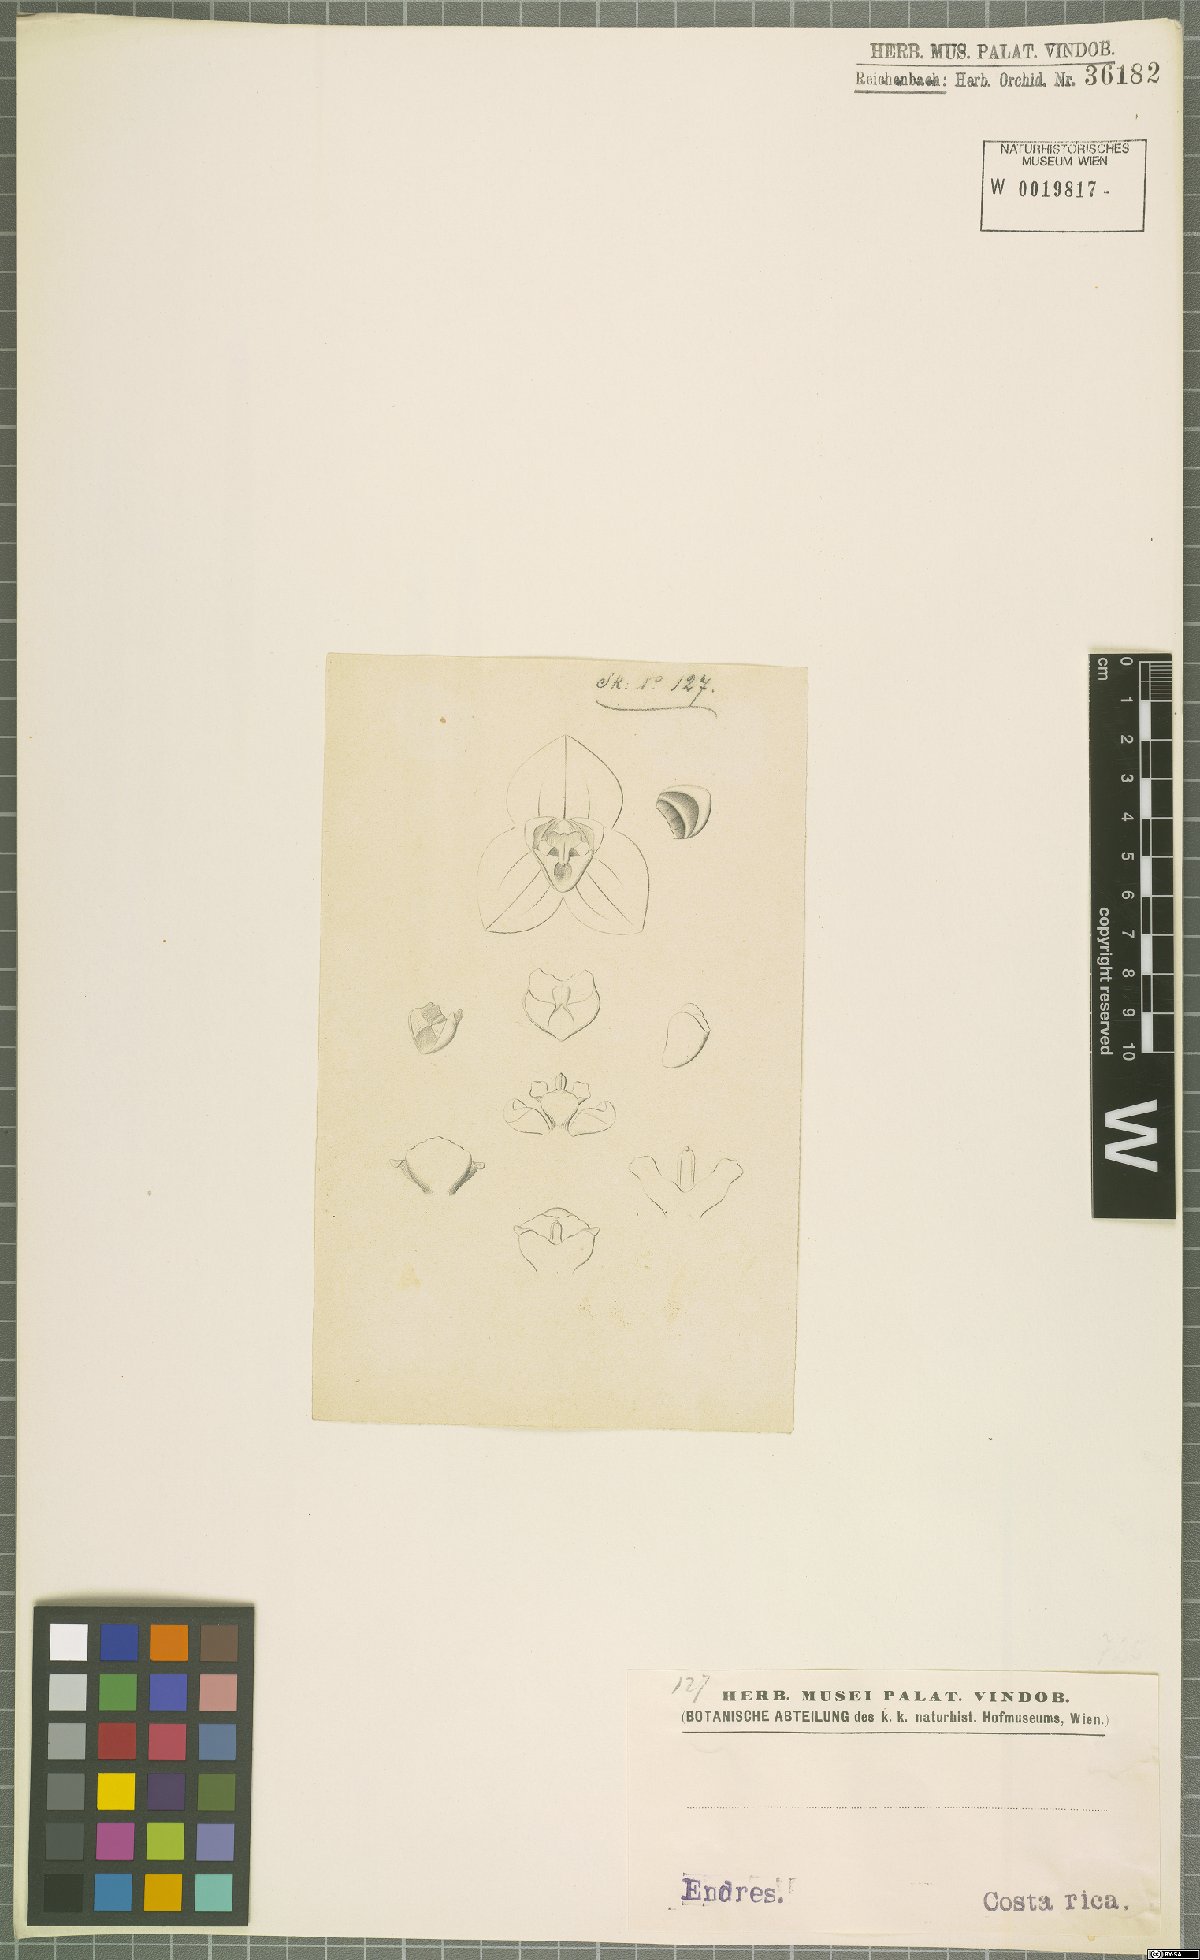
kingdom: Plantae
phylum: Tracheophyta
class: Liliopsida
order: Asparagales
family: Orchidaceae
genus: Stelis
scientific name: Stelis
